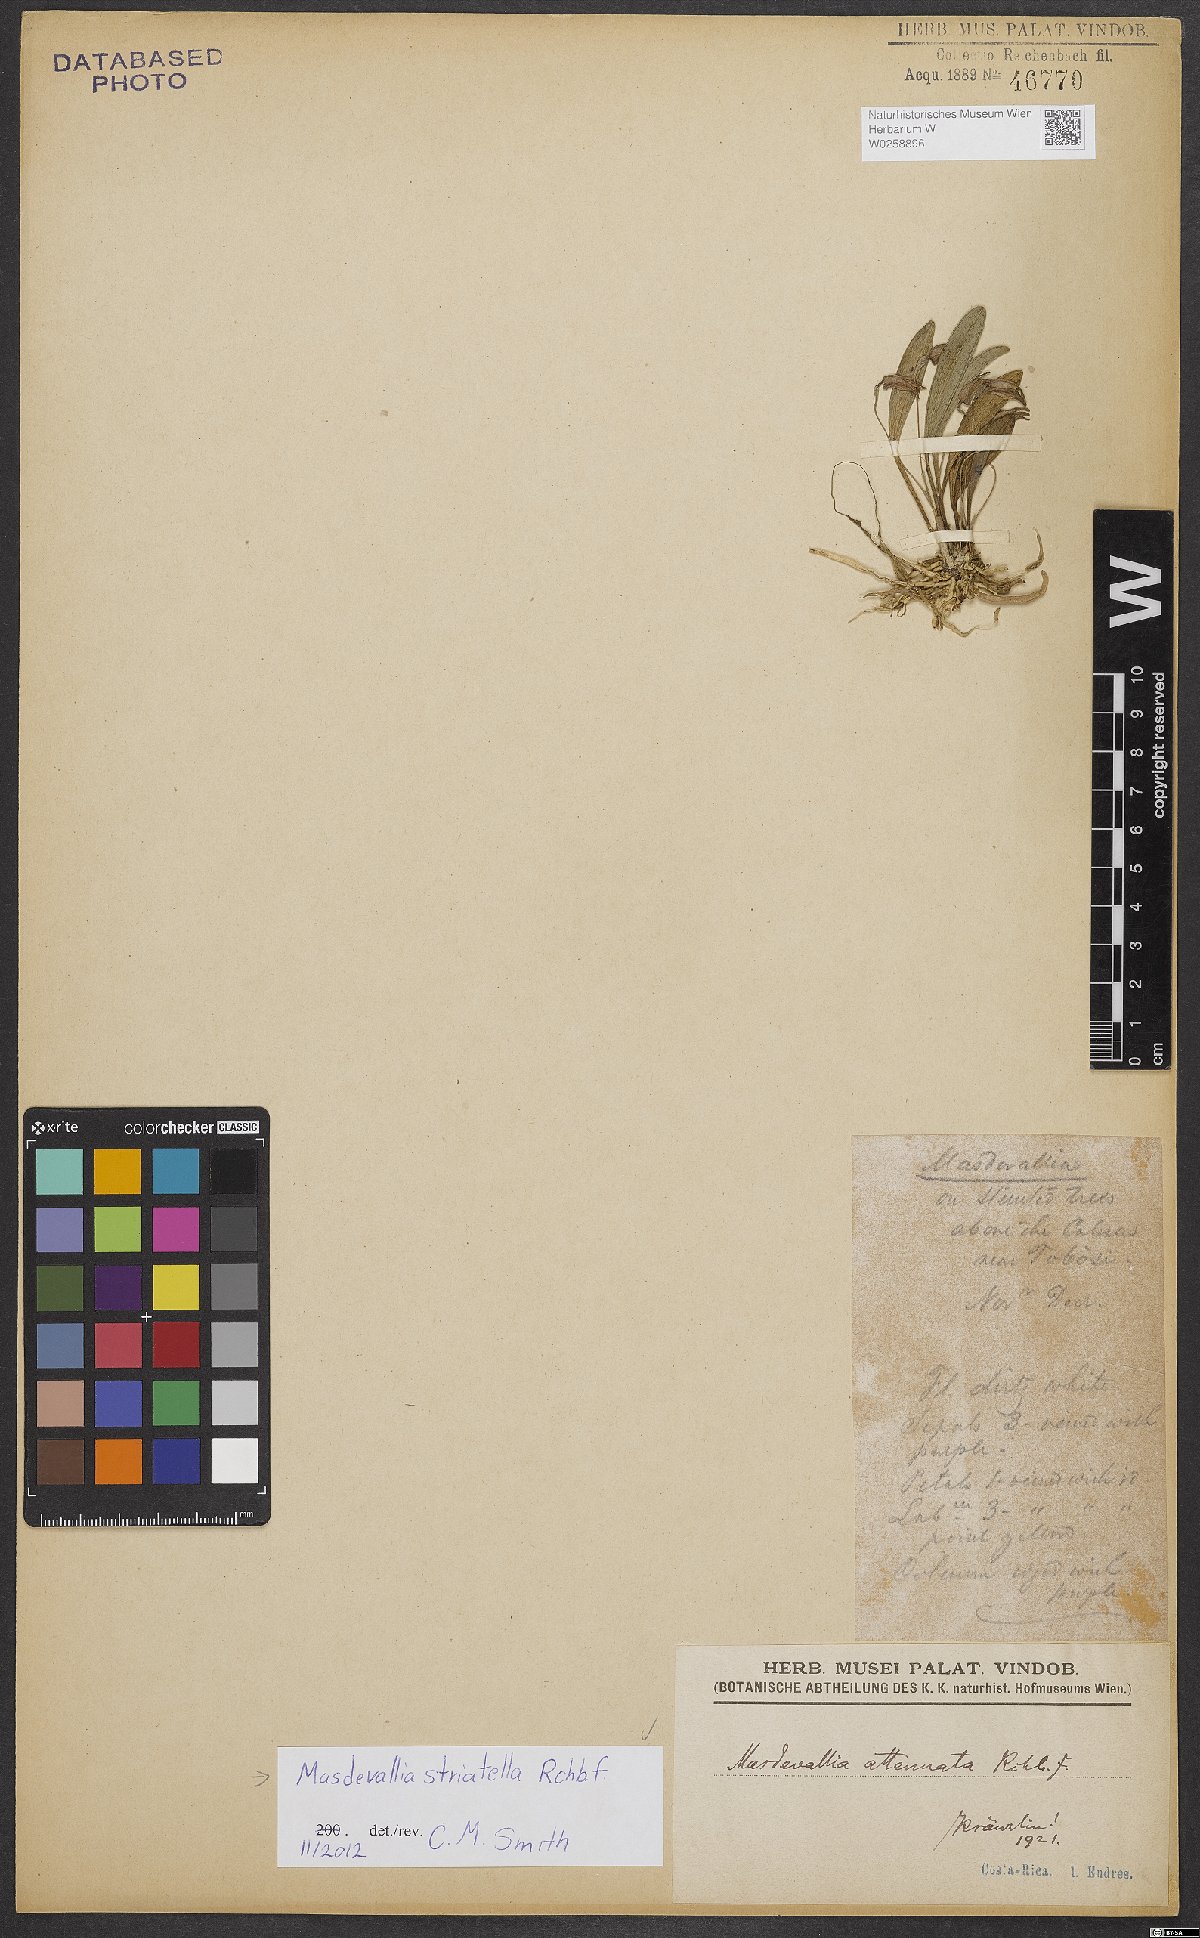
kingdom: Plantae
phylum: Tracheophyta
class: Liliopsida
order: Asparagales
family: Orchidaceae
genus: Masdevallia
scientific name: Masdevallia striatella
